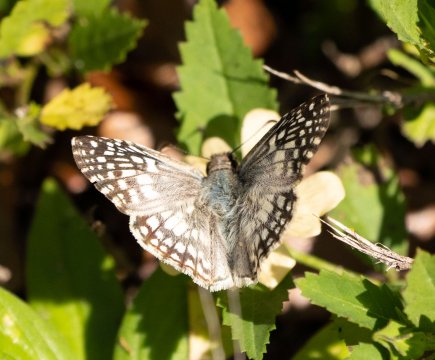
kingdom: Animalia
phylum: Arthropoda
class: Insecta
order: Lepidoptera
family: Hesperiidae
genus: Pyrgus
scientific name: Pyrgus oileus
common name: Tropical Checkered-Skipper
